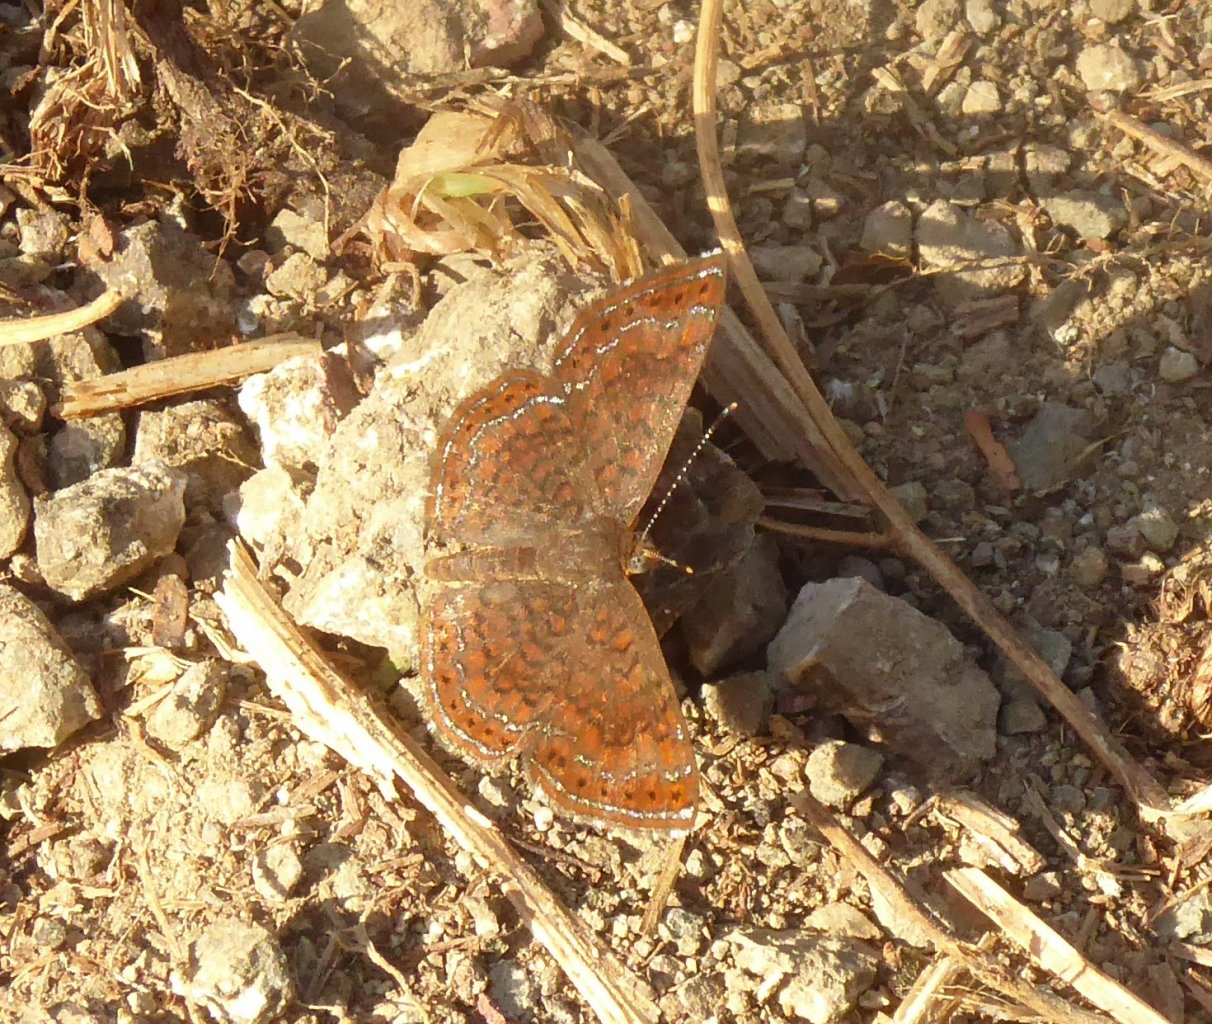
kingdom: Animalia
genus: Calephelis
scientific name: Calephelis
